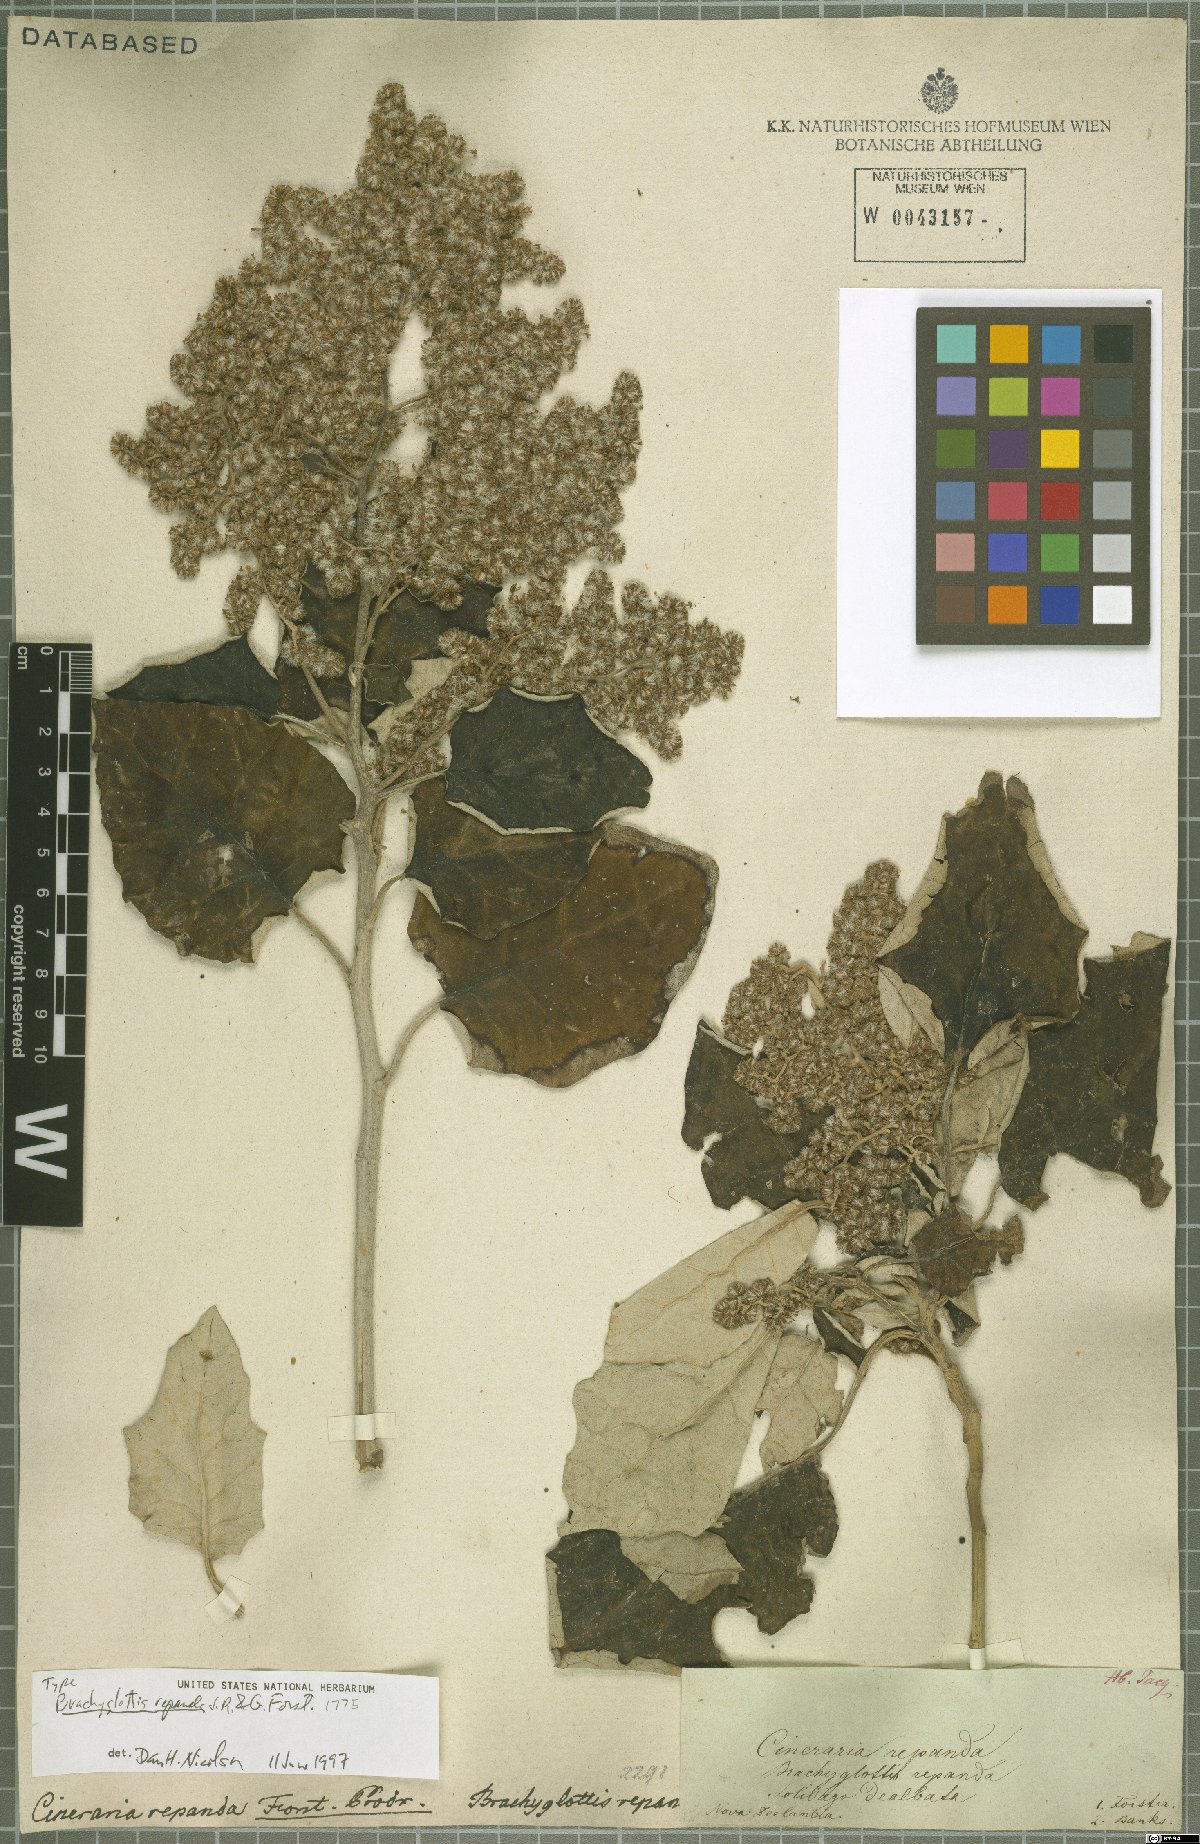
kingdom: Plantae
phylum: Tracheophyta
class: Magnoliopsida
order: Asterales
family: Asteraceae
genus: Brachyglottis
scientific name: Brachyglottis repanda
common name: Hedge ragwort
